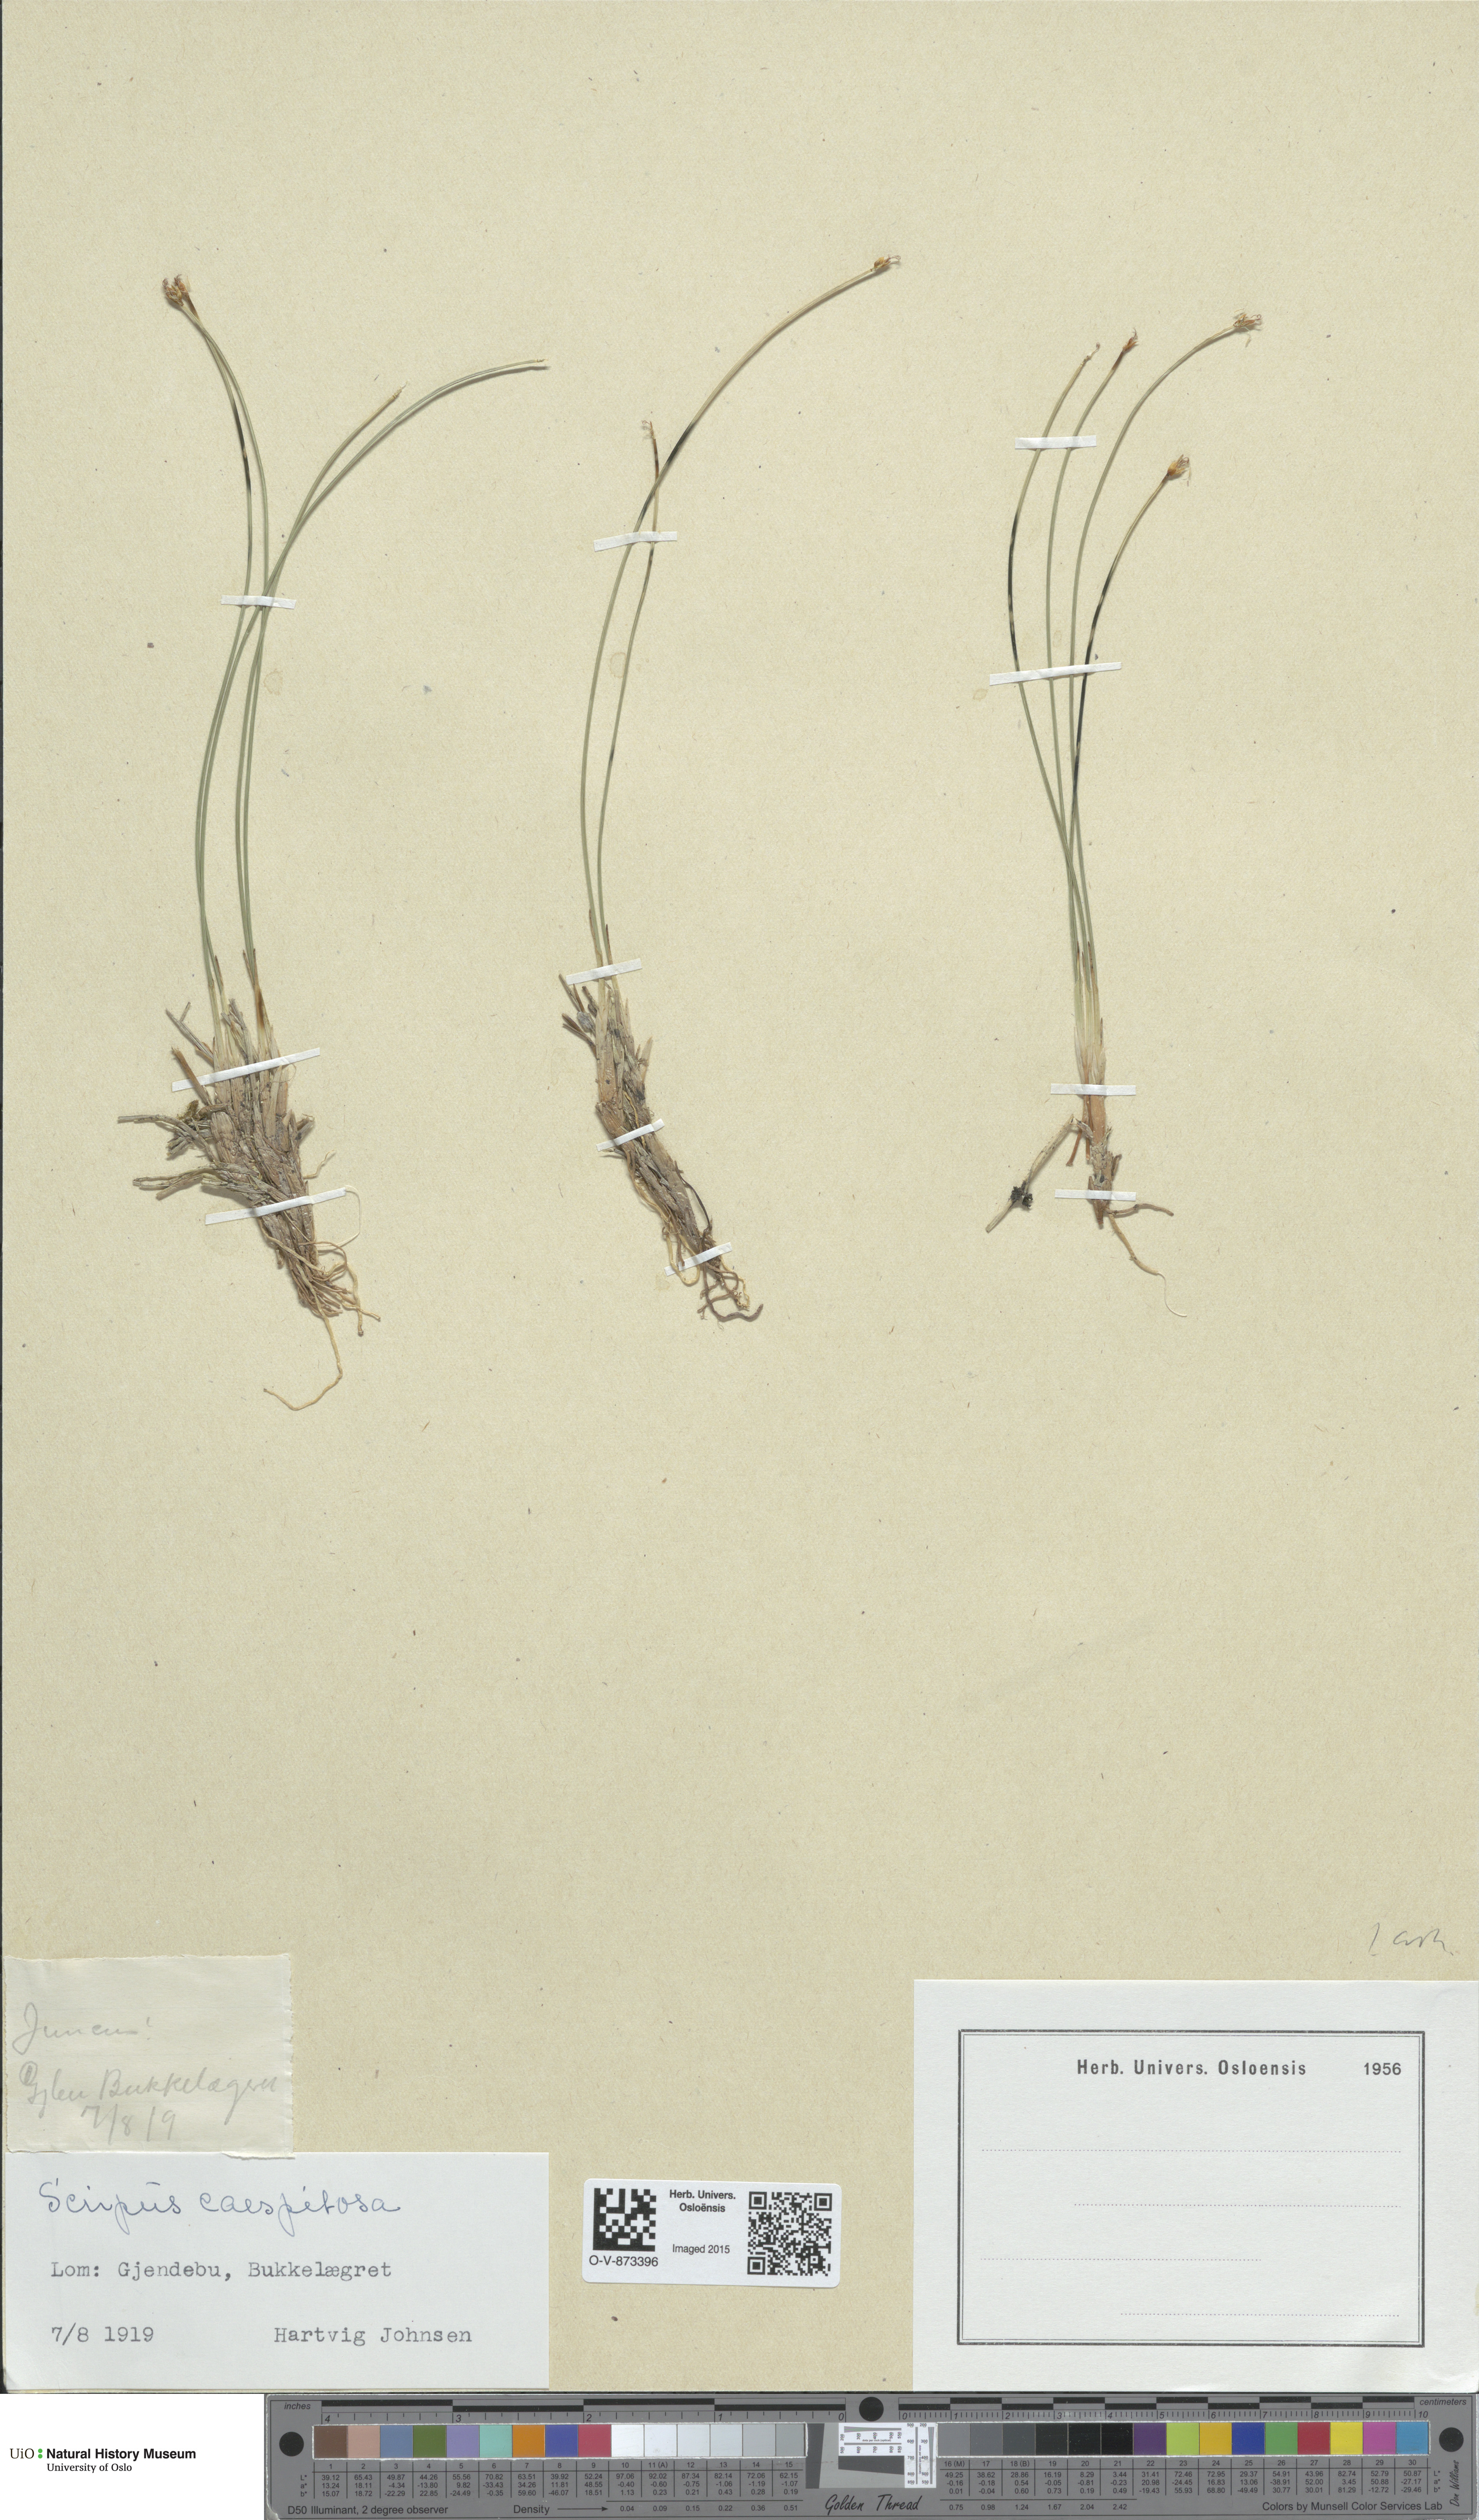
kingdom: Plantae
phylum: Tracheophyta
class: Liliopsida
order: Poales
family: Cyperaceae
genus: Trichophorum
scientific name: Trichophorum cespitosum
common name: Cespitose bulrush
